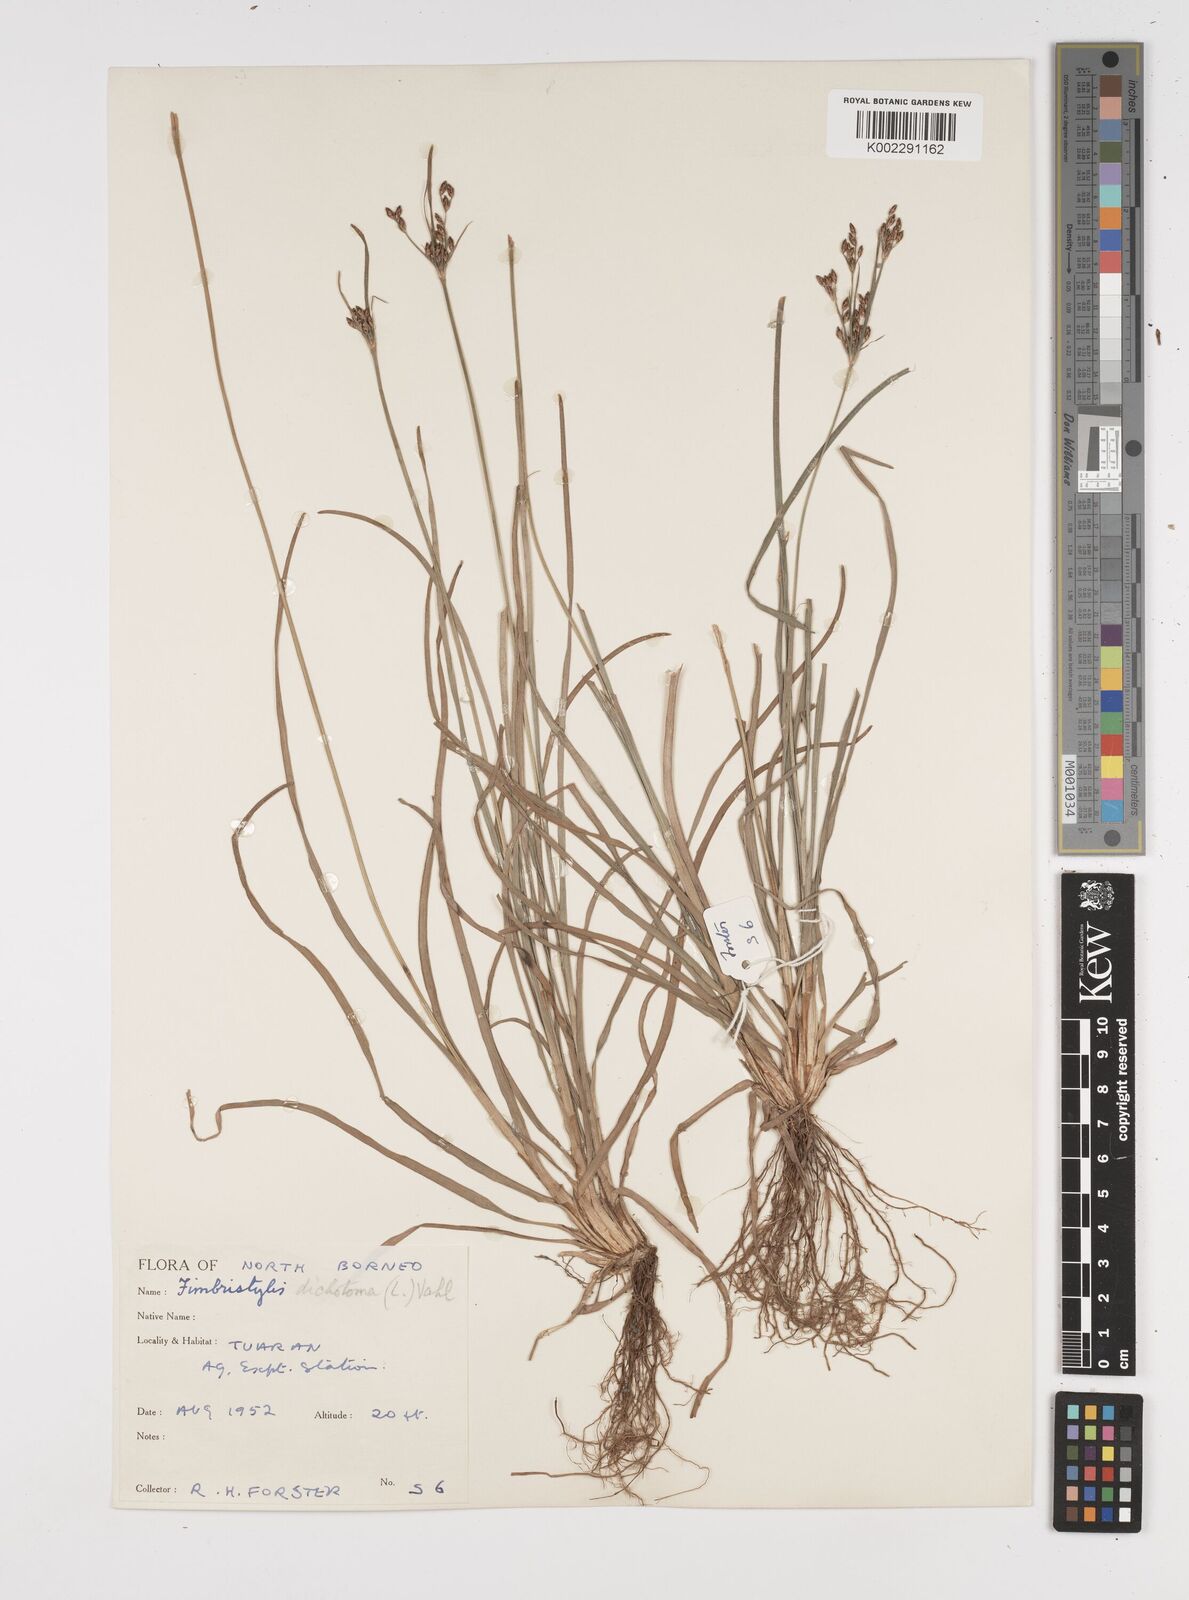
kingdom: Plantae
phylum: Tracheophyta
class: Liliopsida
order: Poales
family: Cyperaceae
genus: Fimbristylis
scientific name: Fimbristylis dichotoma
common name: Forked fimbry
